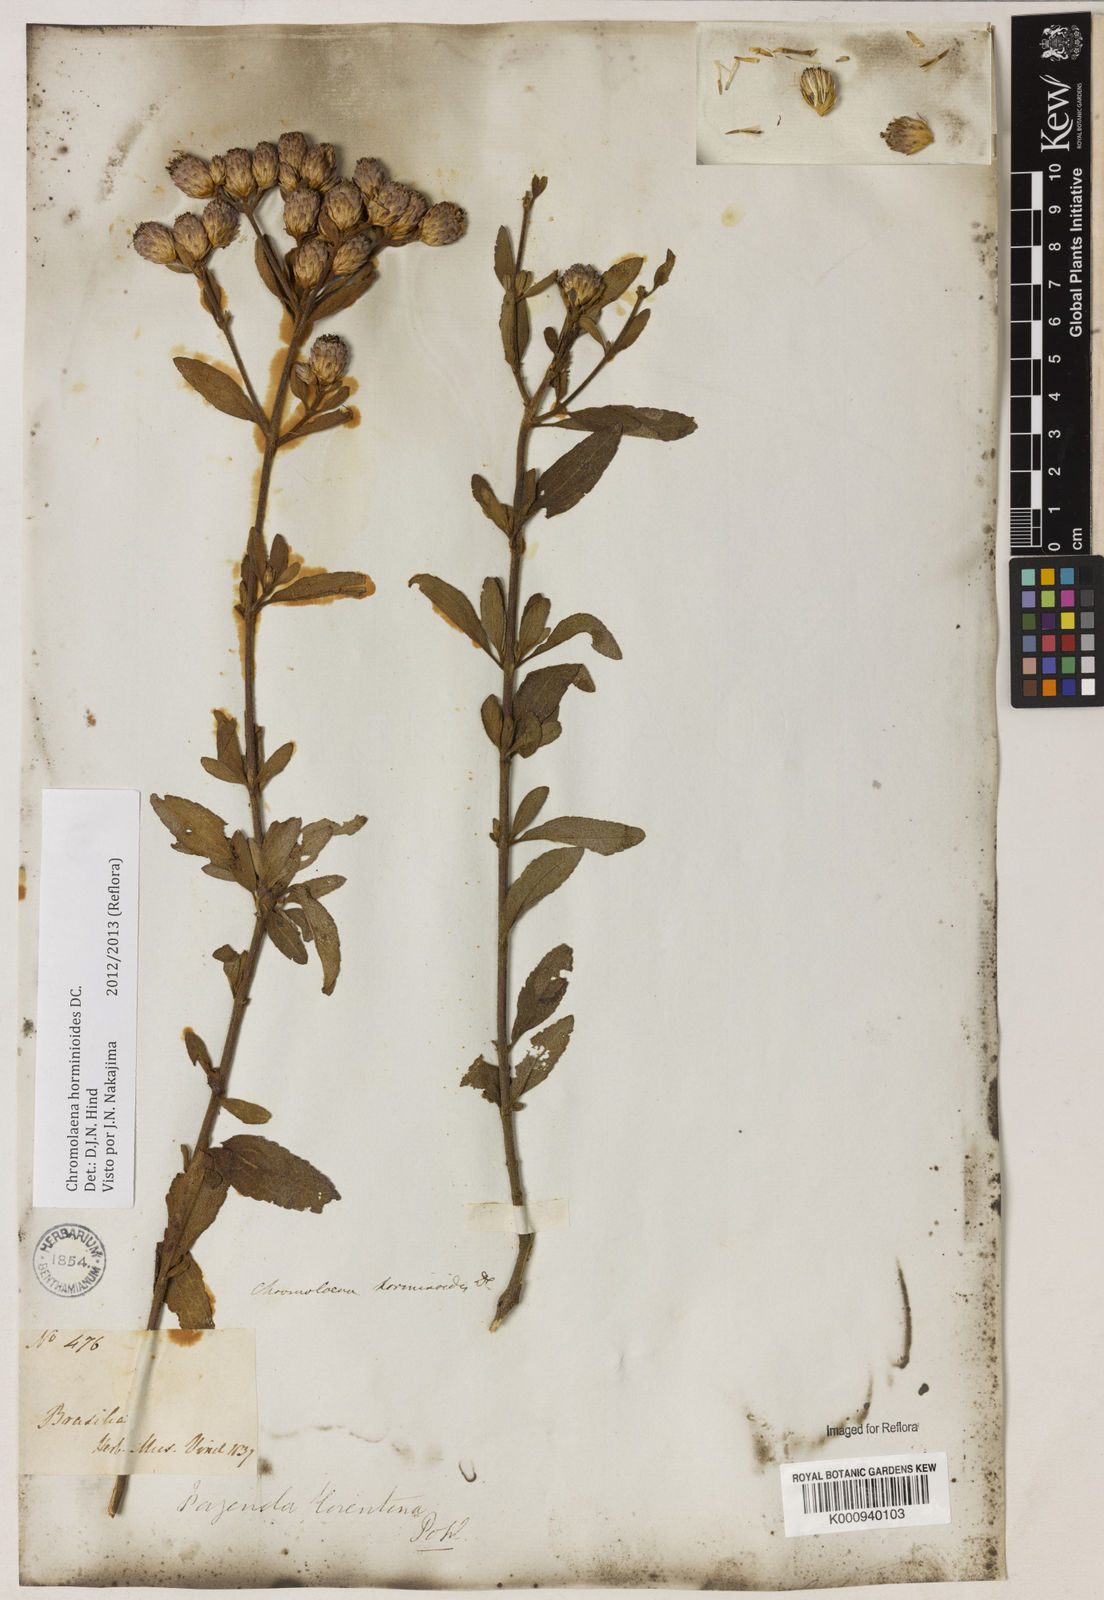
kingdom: Plantae
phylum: Tracheophyta
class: Magnoliopsida
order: Asterales
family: Asteraceae
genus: Chromolaena
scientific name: Chromolaena horminoides
